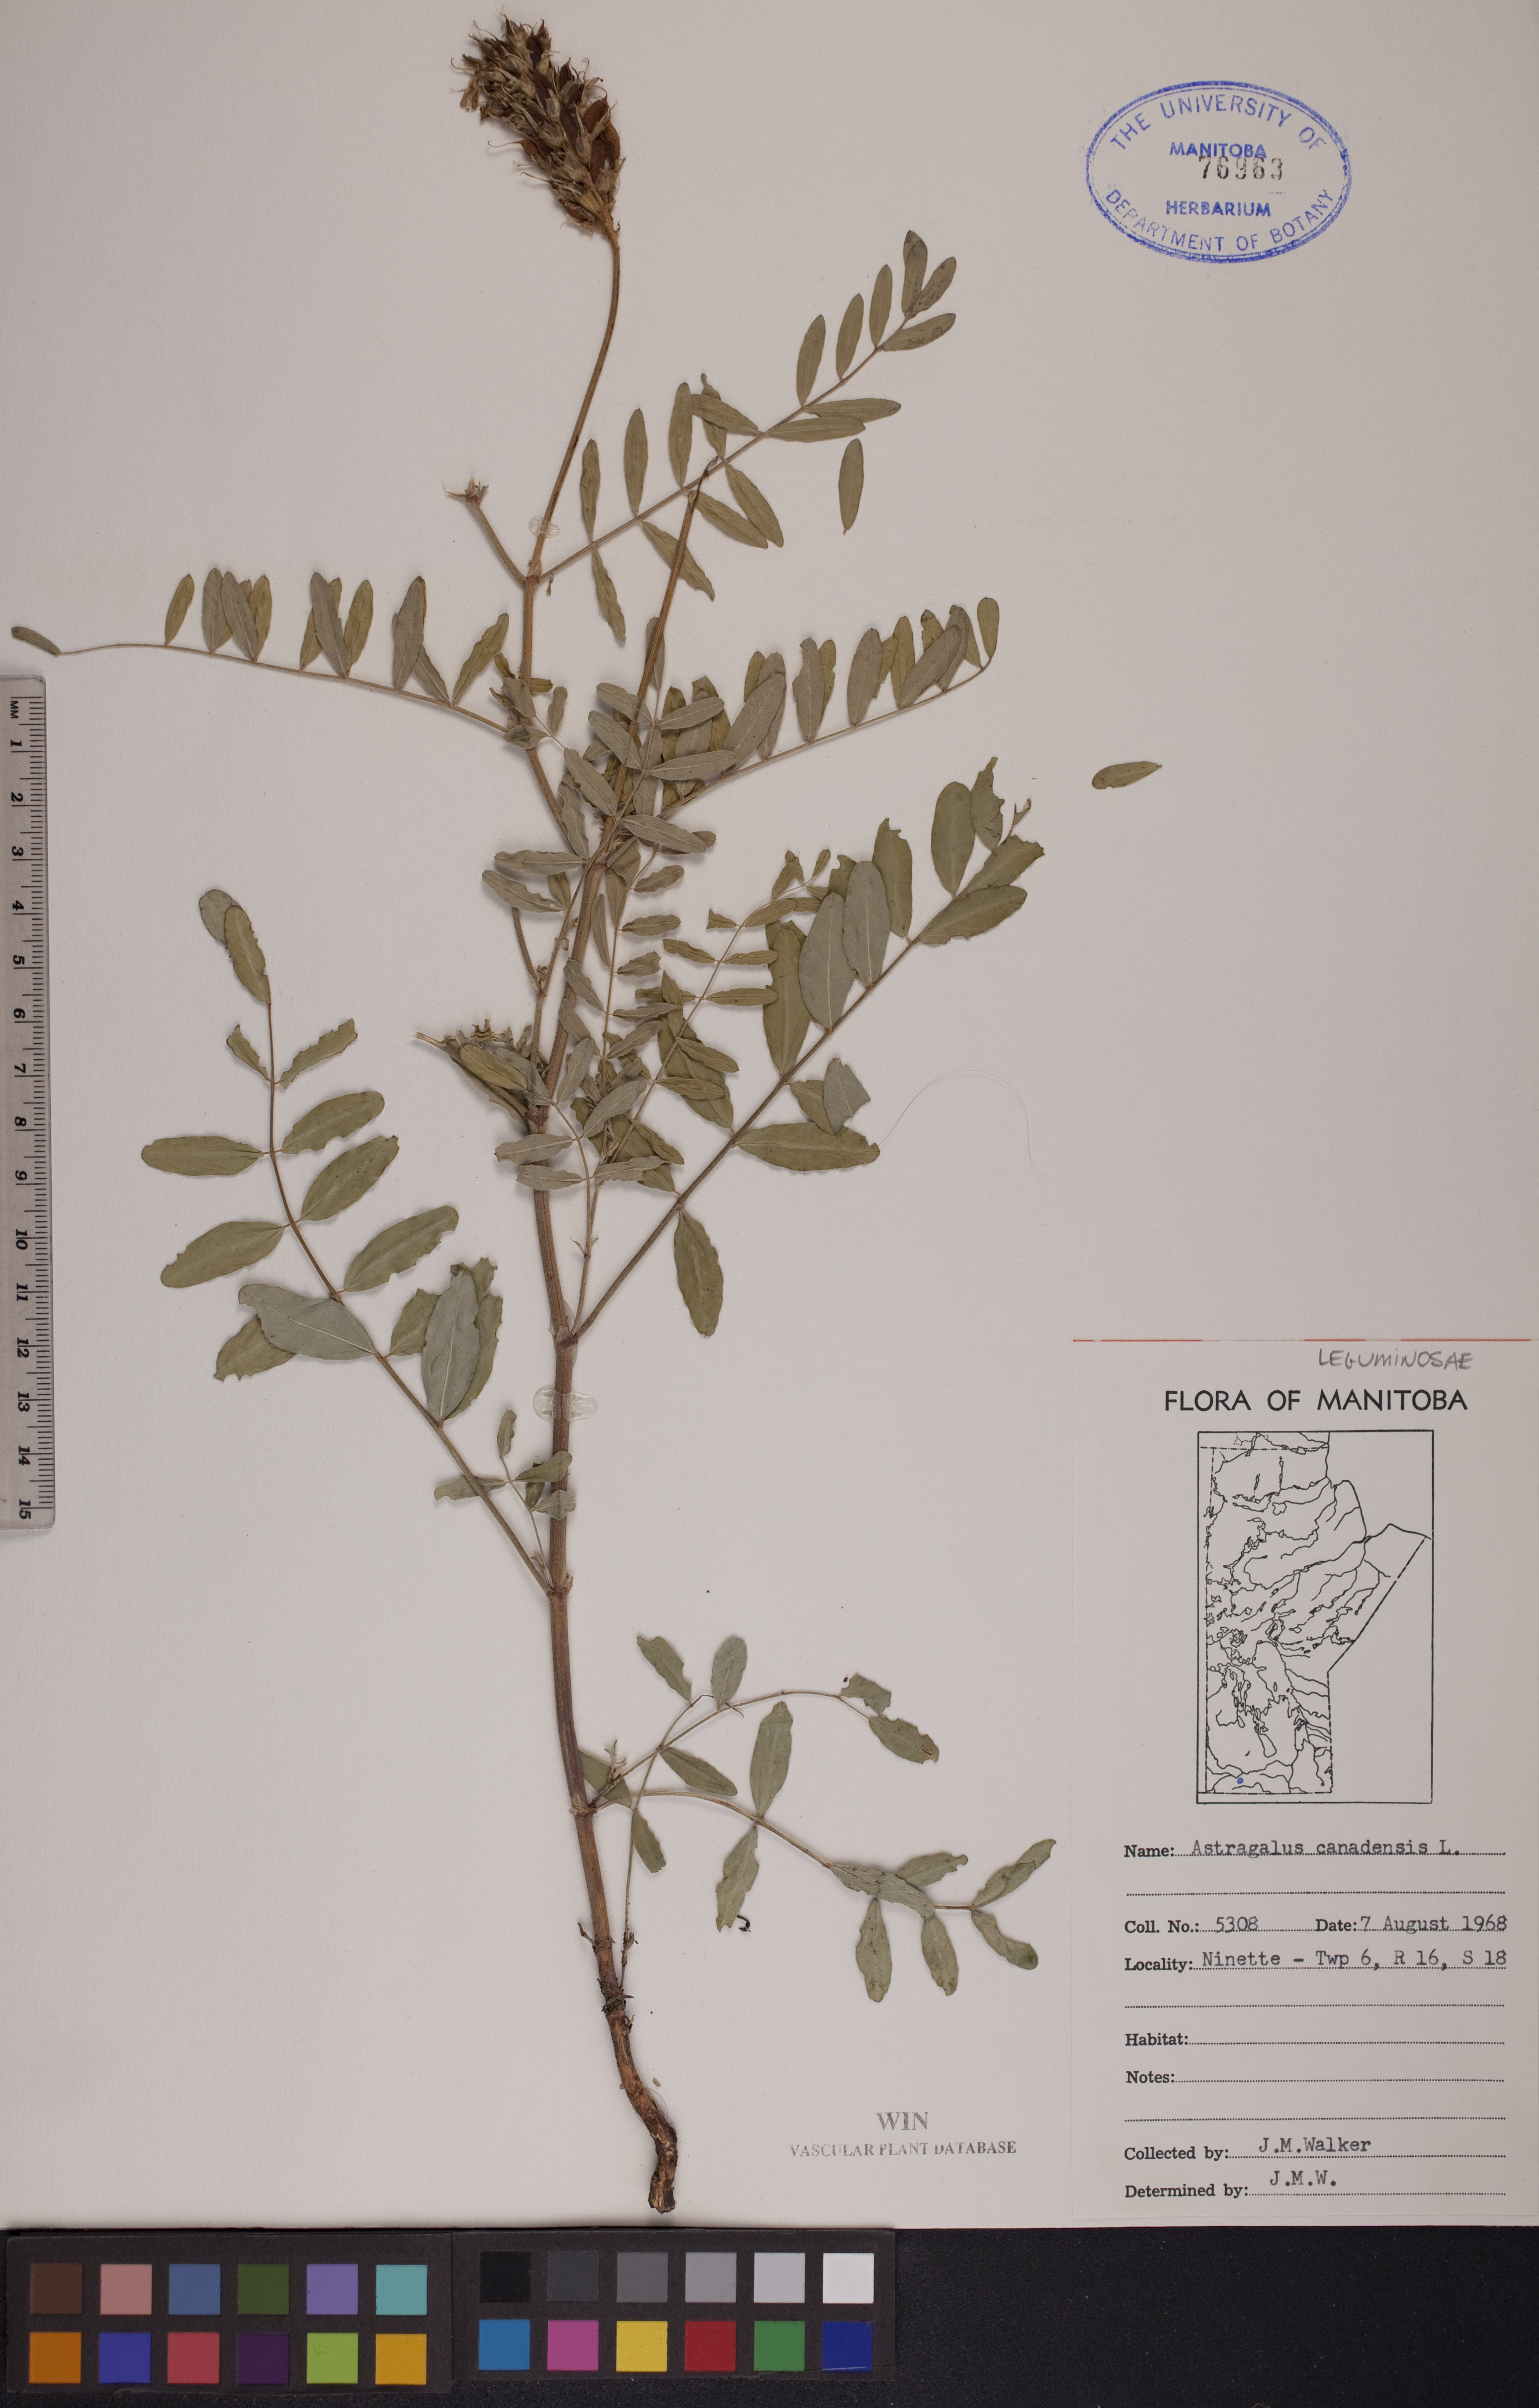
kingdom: Plantae
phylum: Tracheophyta
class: Magnoliopsida
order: Fabales
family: Fabaceae
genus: Astragalus
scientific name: Astragalus canadensis
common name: Canada milk-vetch
